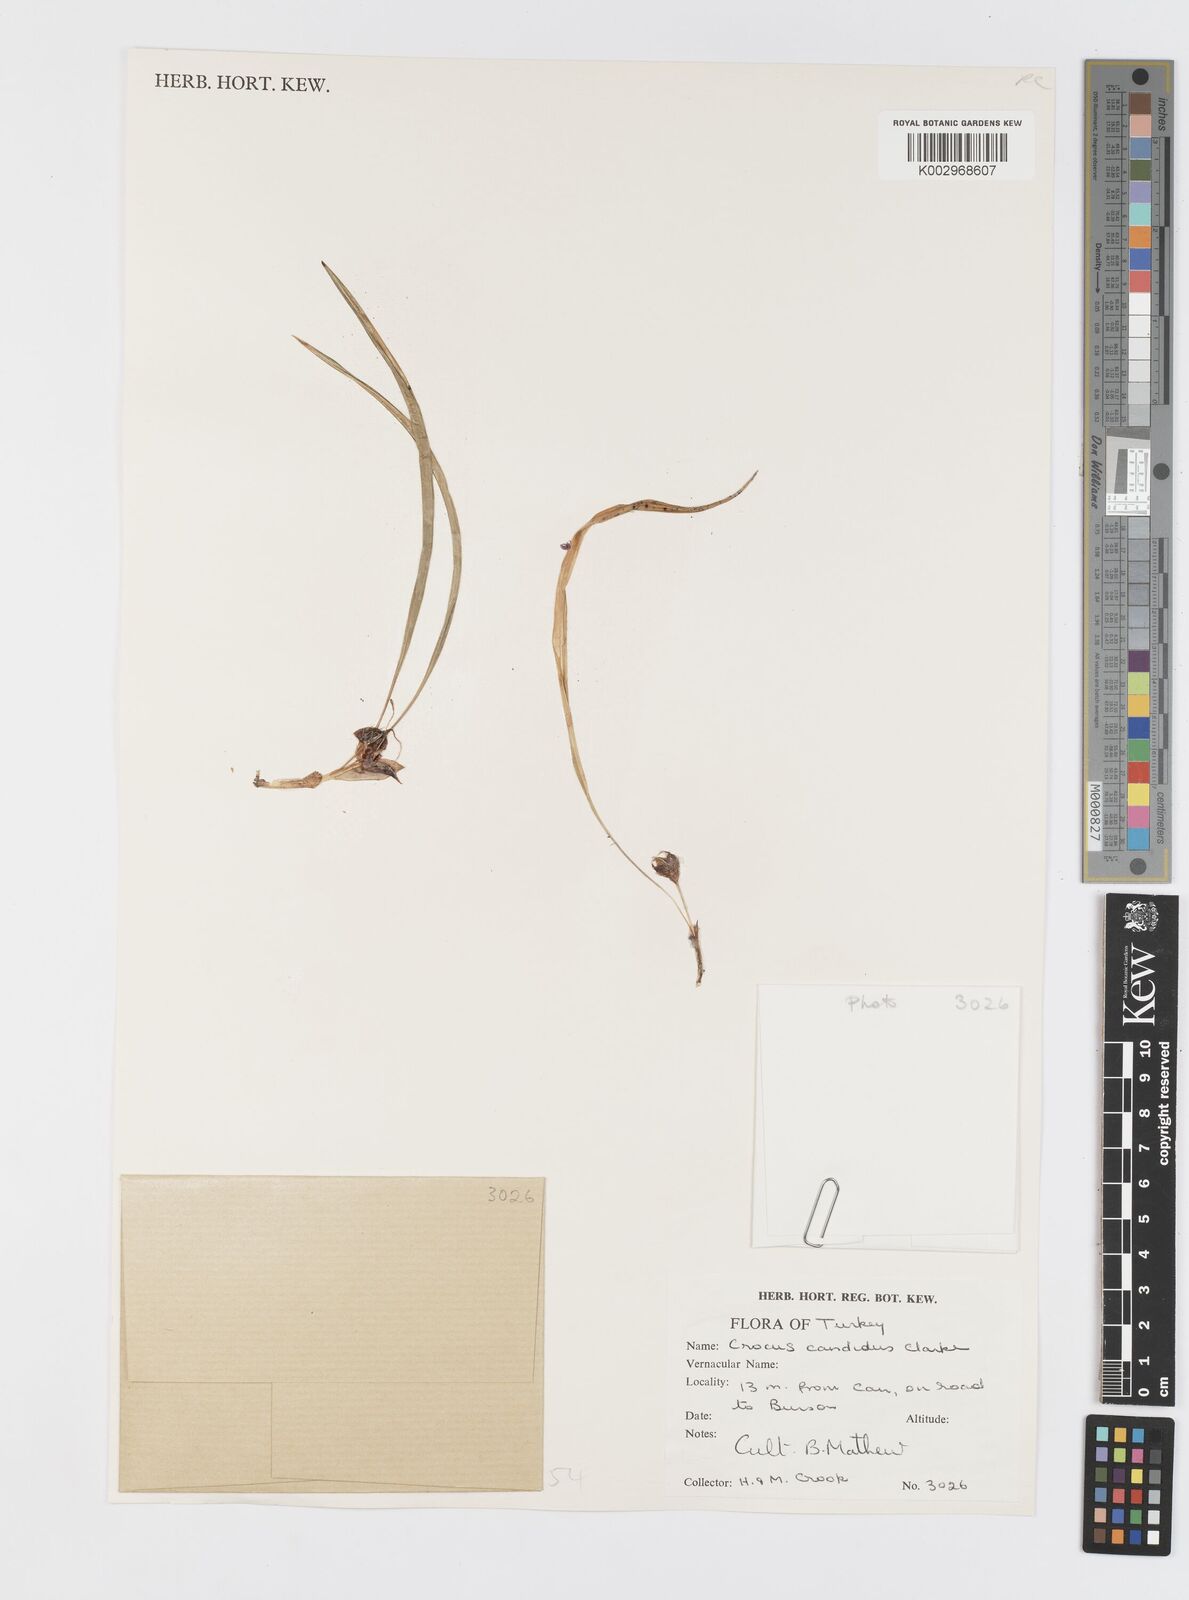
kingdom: Plantae
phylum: Tracheophyta
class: Liliopsida
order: Asparagales
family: Iridaceae
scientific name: Iridaceae
